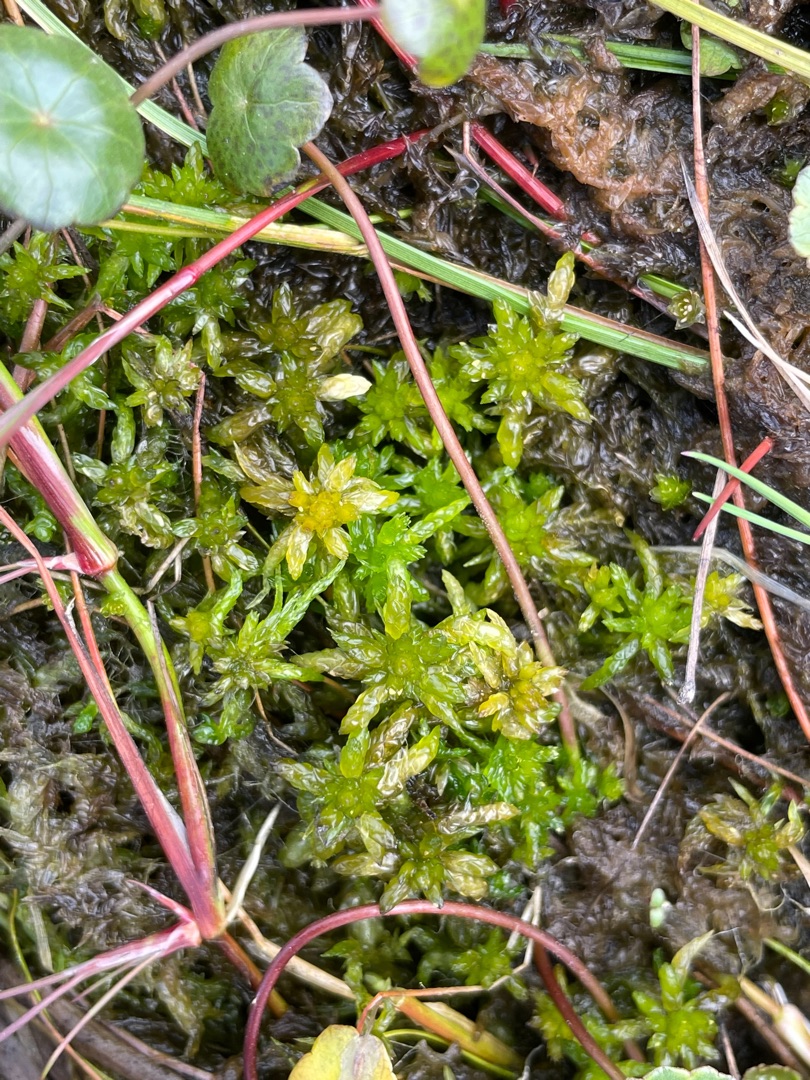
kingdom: Plantae
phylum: Bryophyta
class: Sphagnopsida
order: Sphagnales
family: Sphagnaceae
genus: Sphagnum
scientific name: Sphagnum denticulatum
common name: Rødbrun tørvemos
